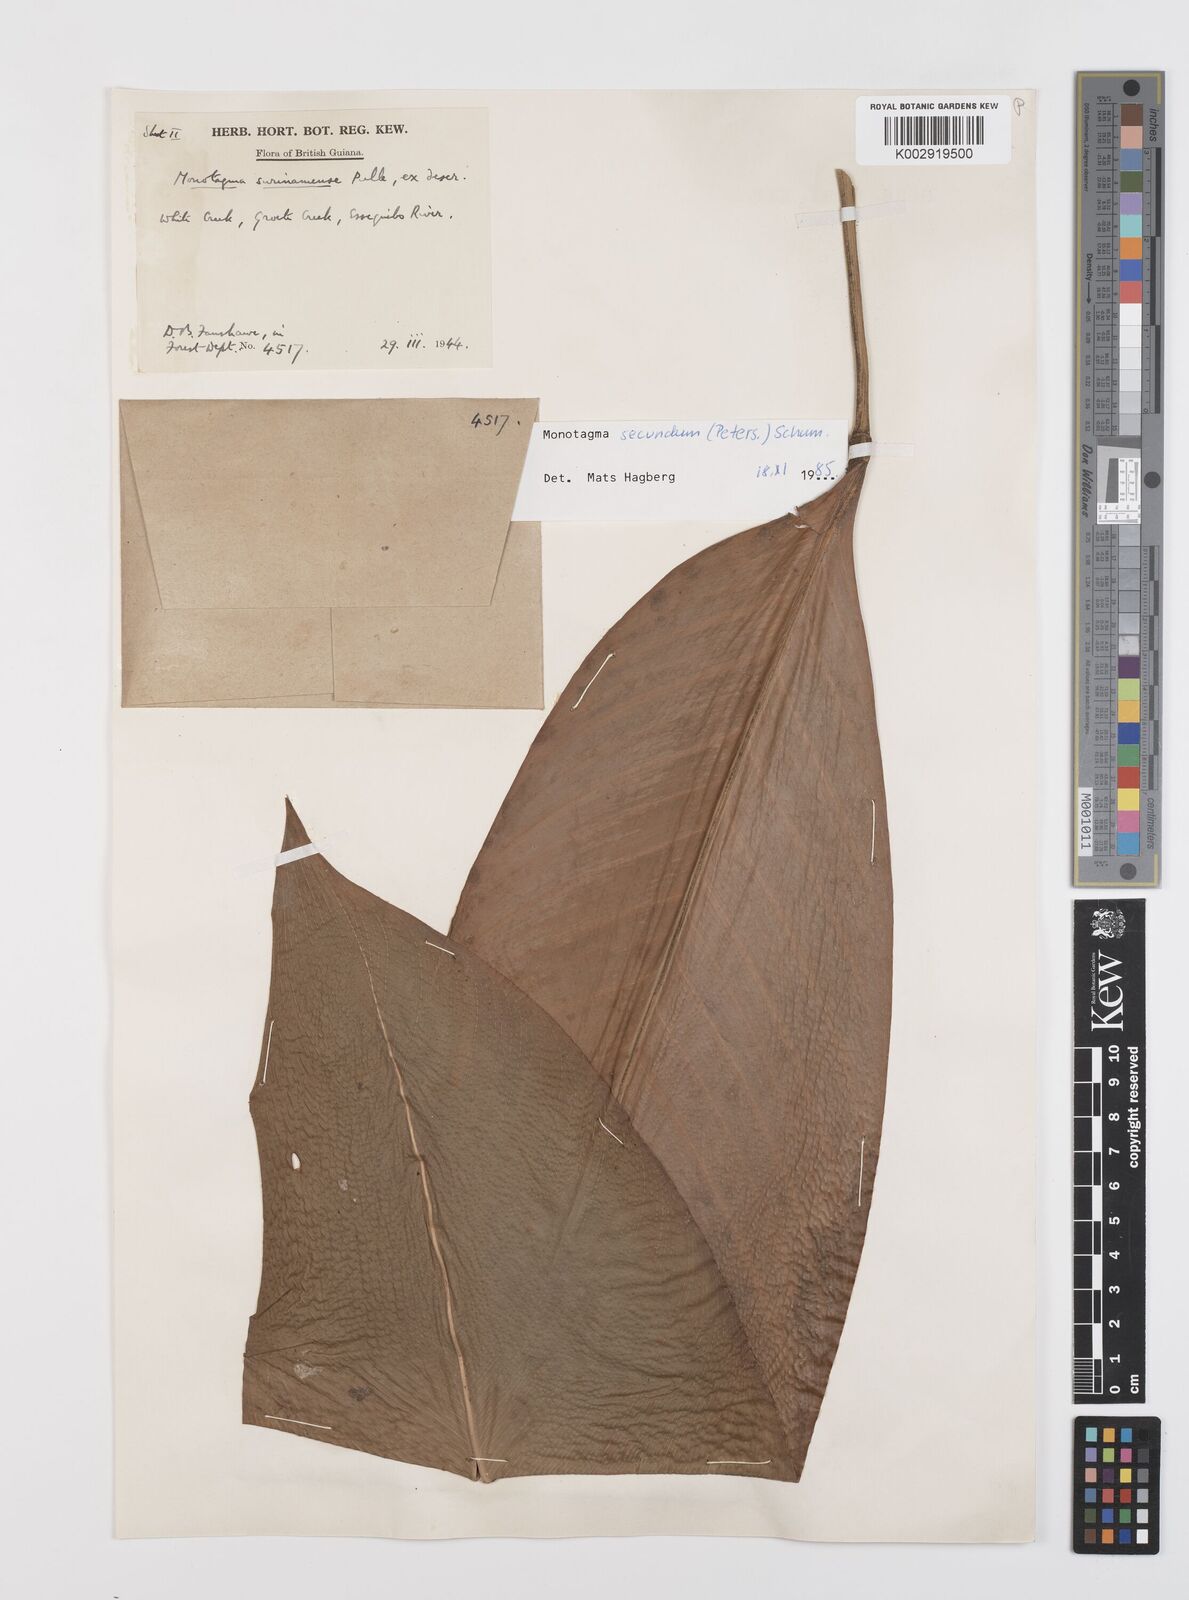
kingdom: Plantae
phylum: Tracheophyta
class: Liliopsida
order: Zingiberales
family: Marantaceae
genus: Monotagma
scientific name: Monotagma secundum
